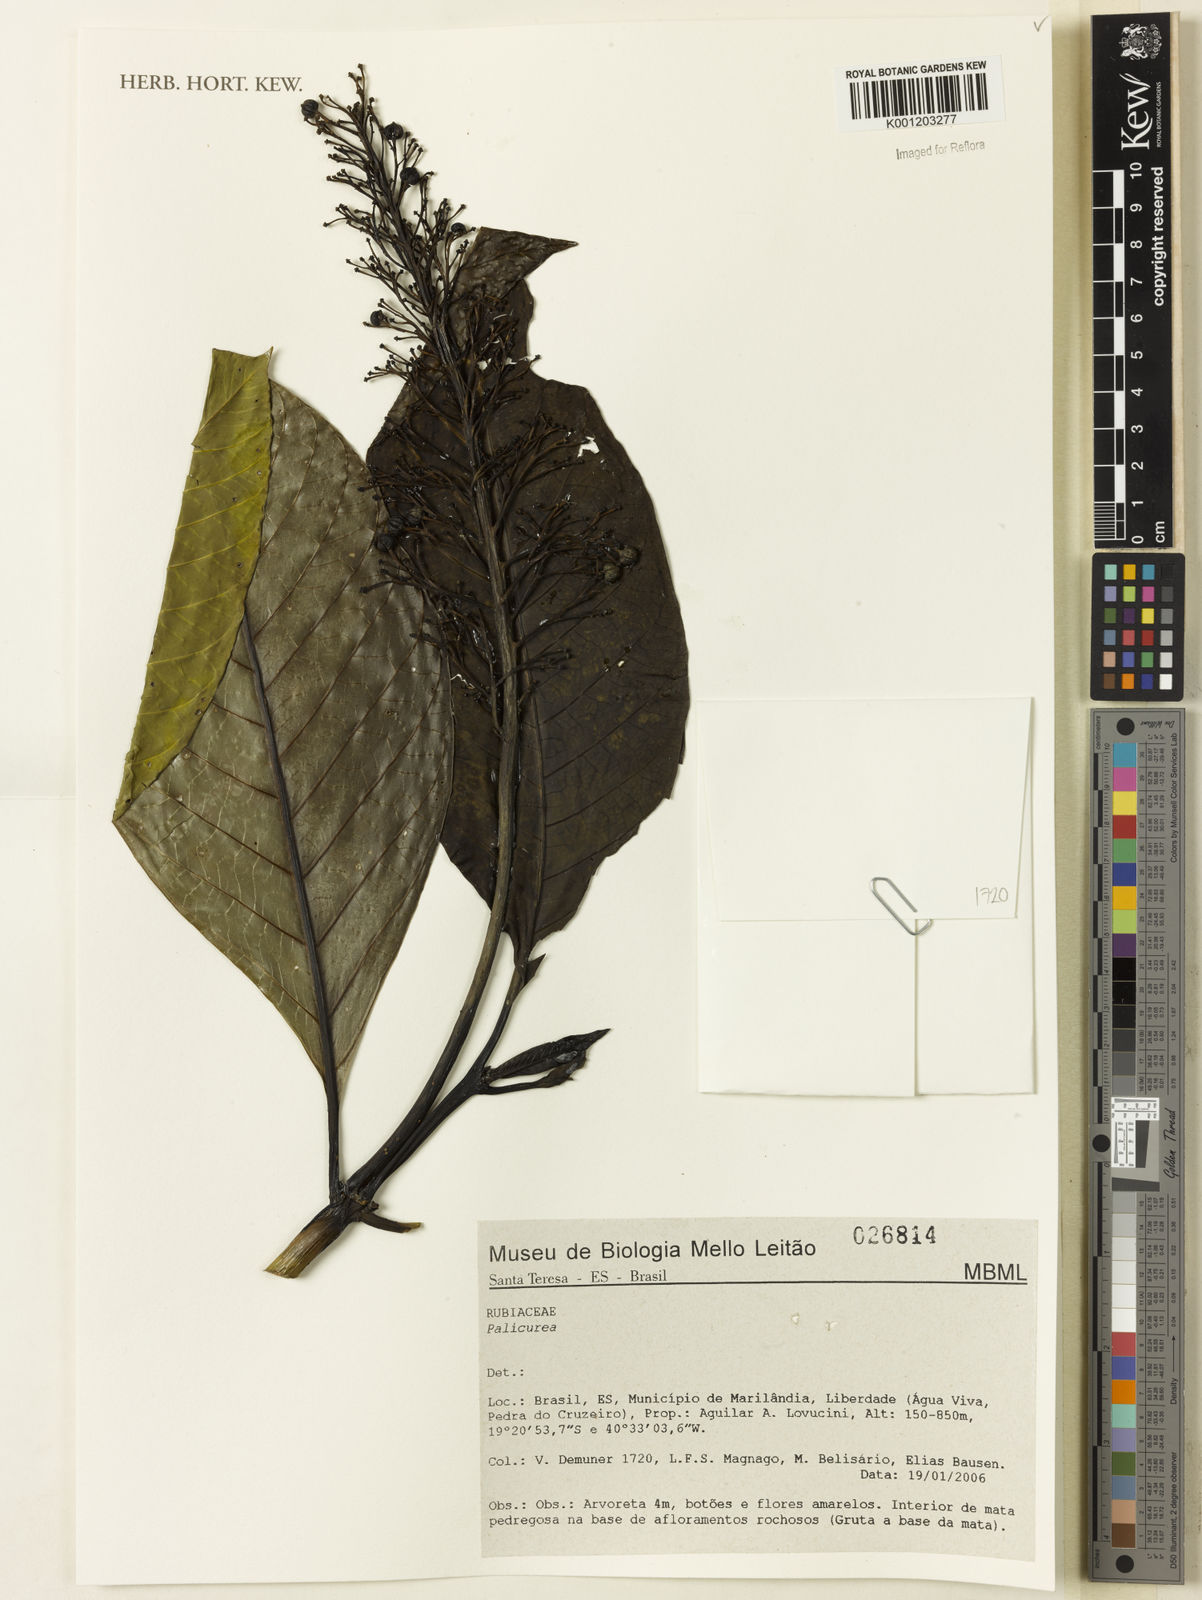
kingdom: Plantae
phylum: Tracheophyta
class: Magnoliopsida
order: Gentianales
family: Rubiaceae
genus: Palicourea
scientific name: Palicourea
